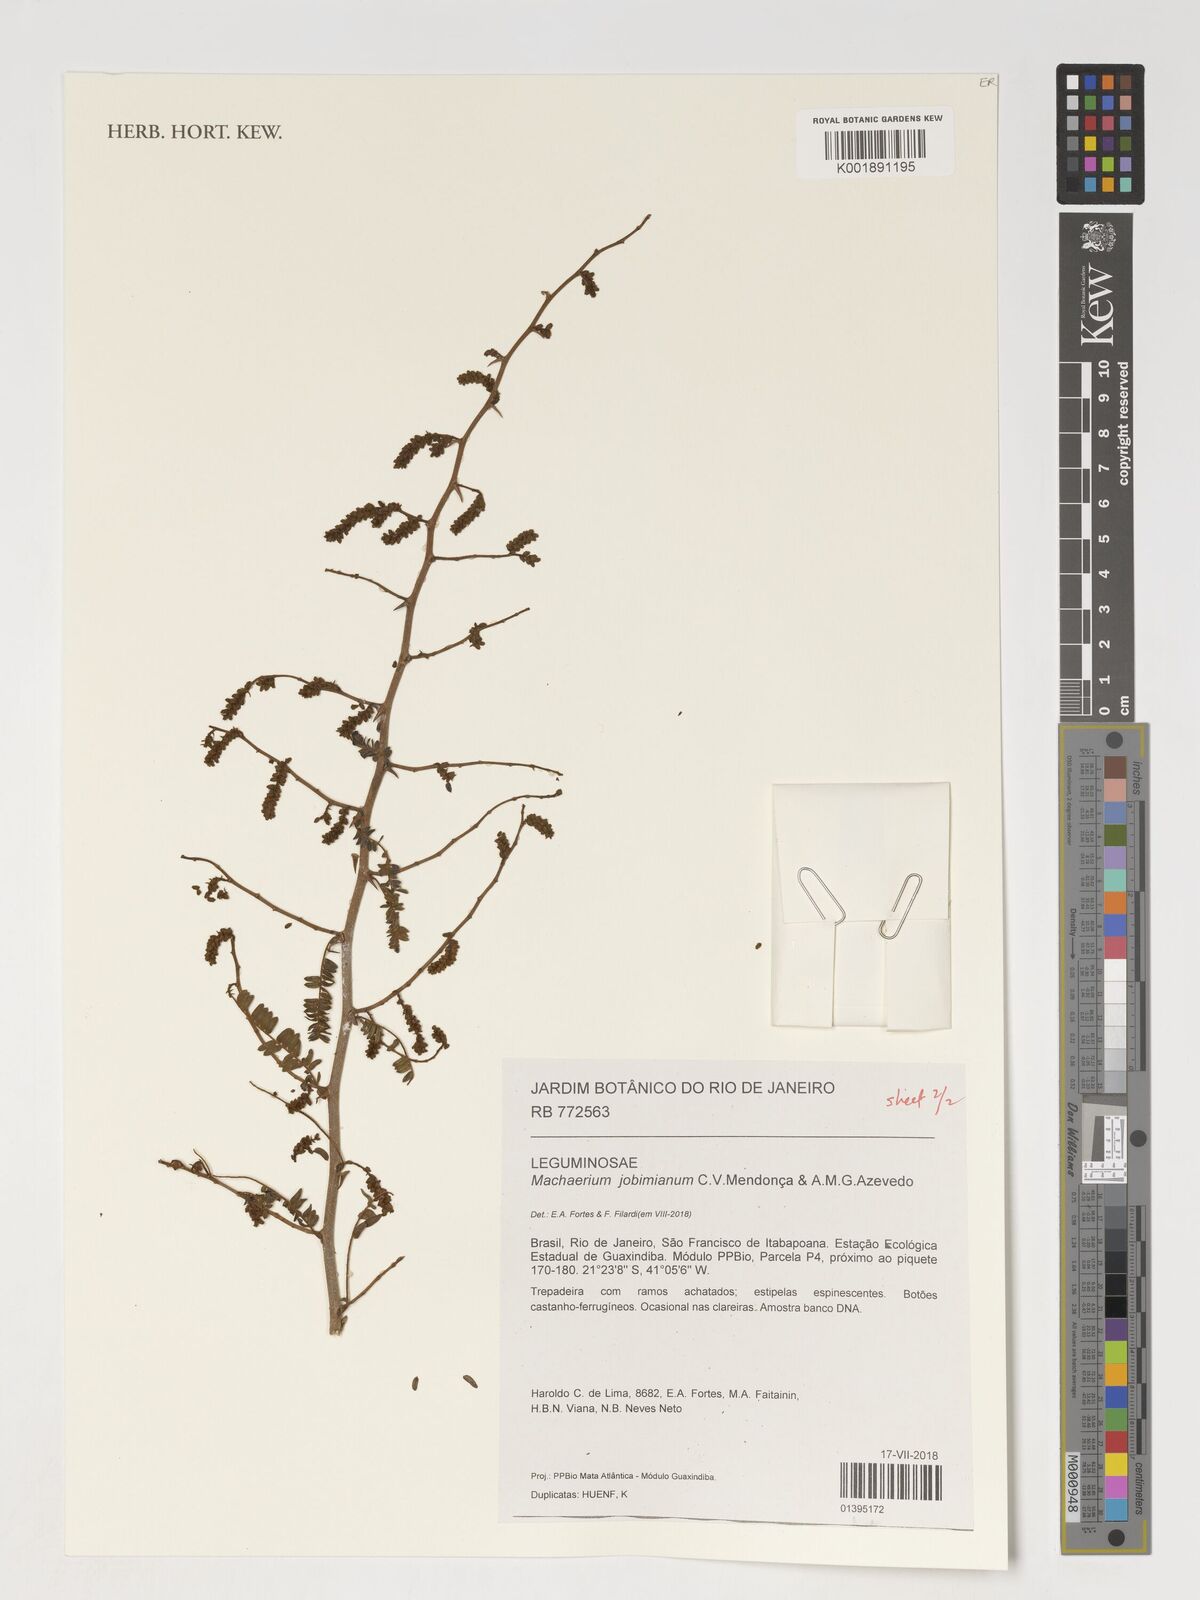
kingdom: Plantae
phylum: Tracheophyta
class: Magnoliopsida
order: Fabales
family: Fabaceae
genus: Machaerium
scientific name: Machaerium jobimianum
